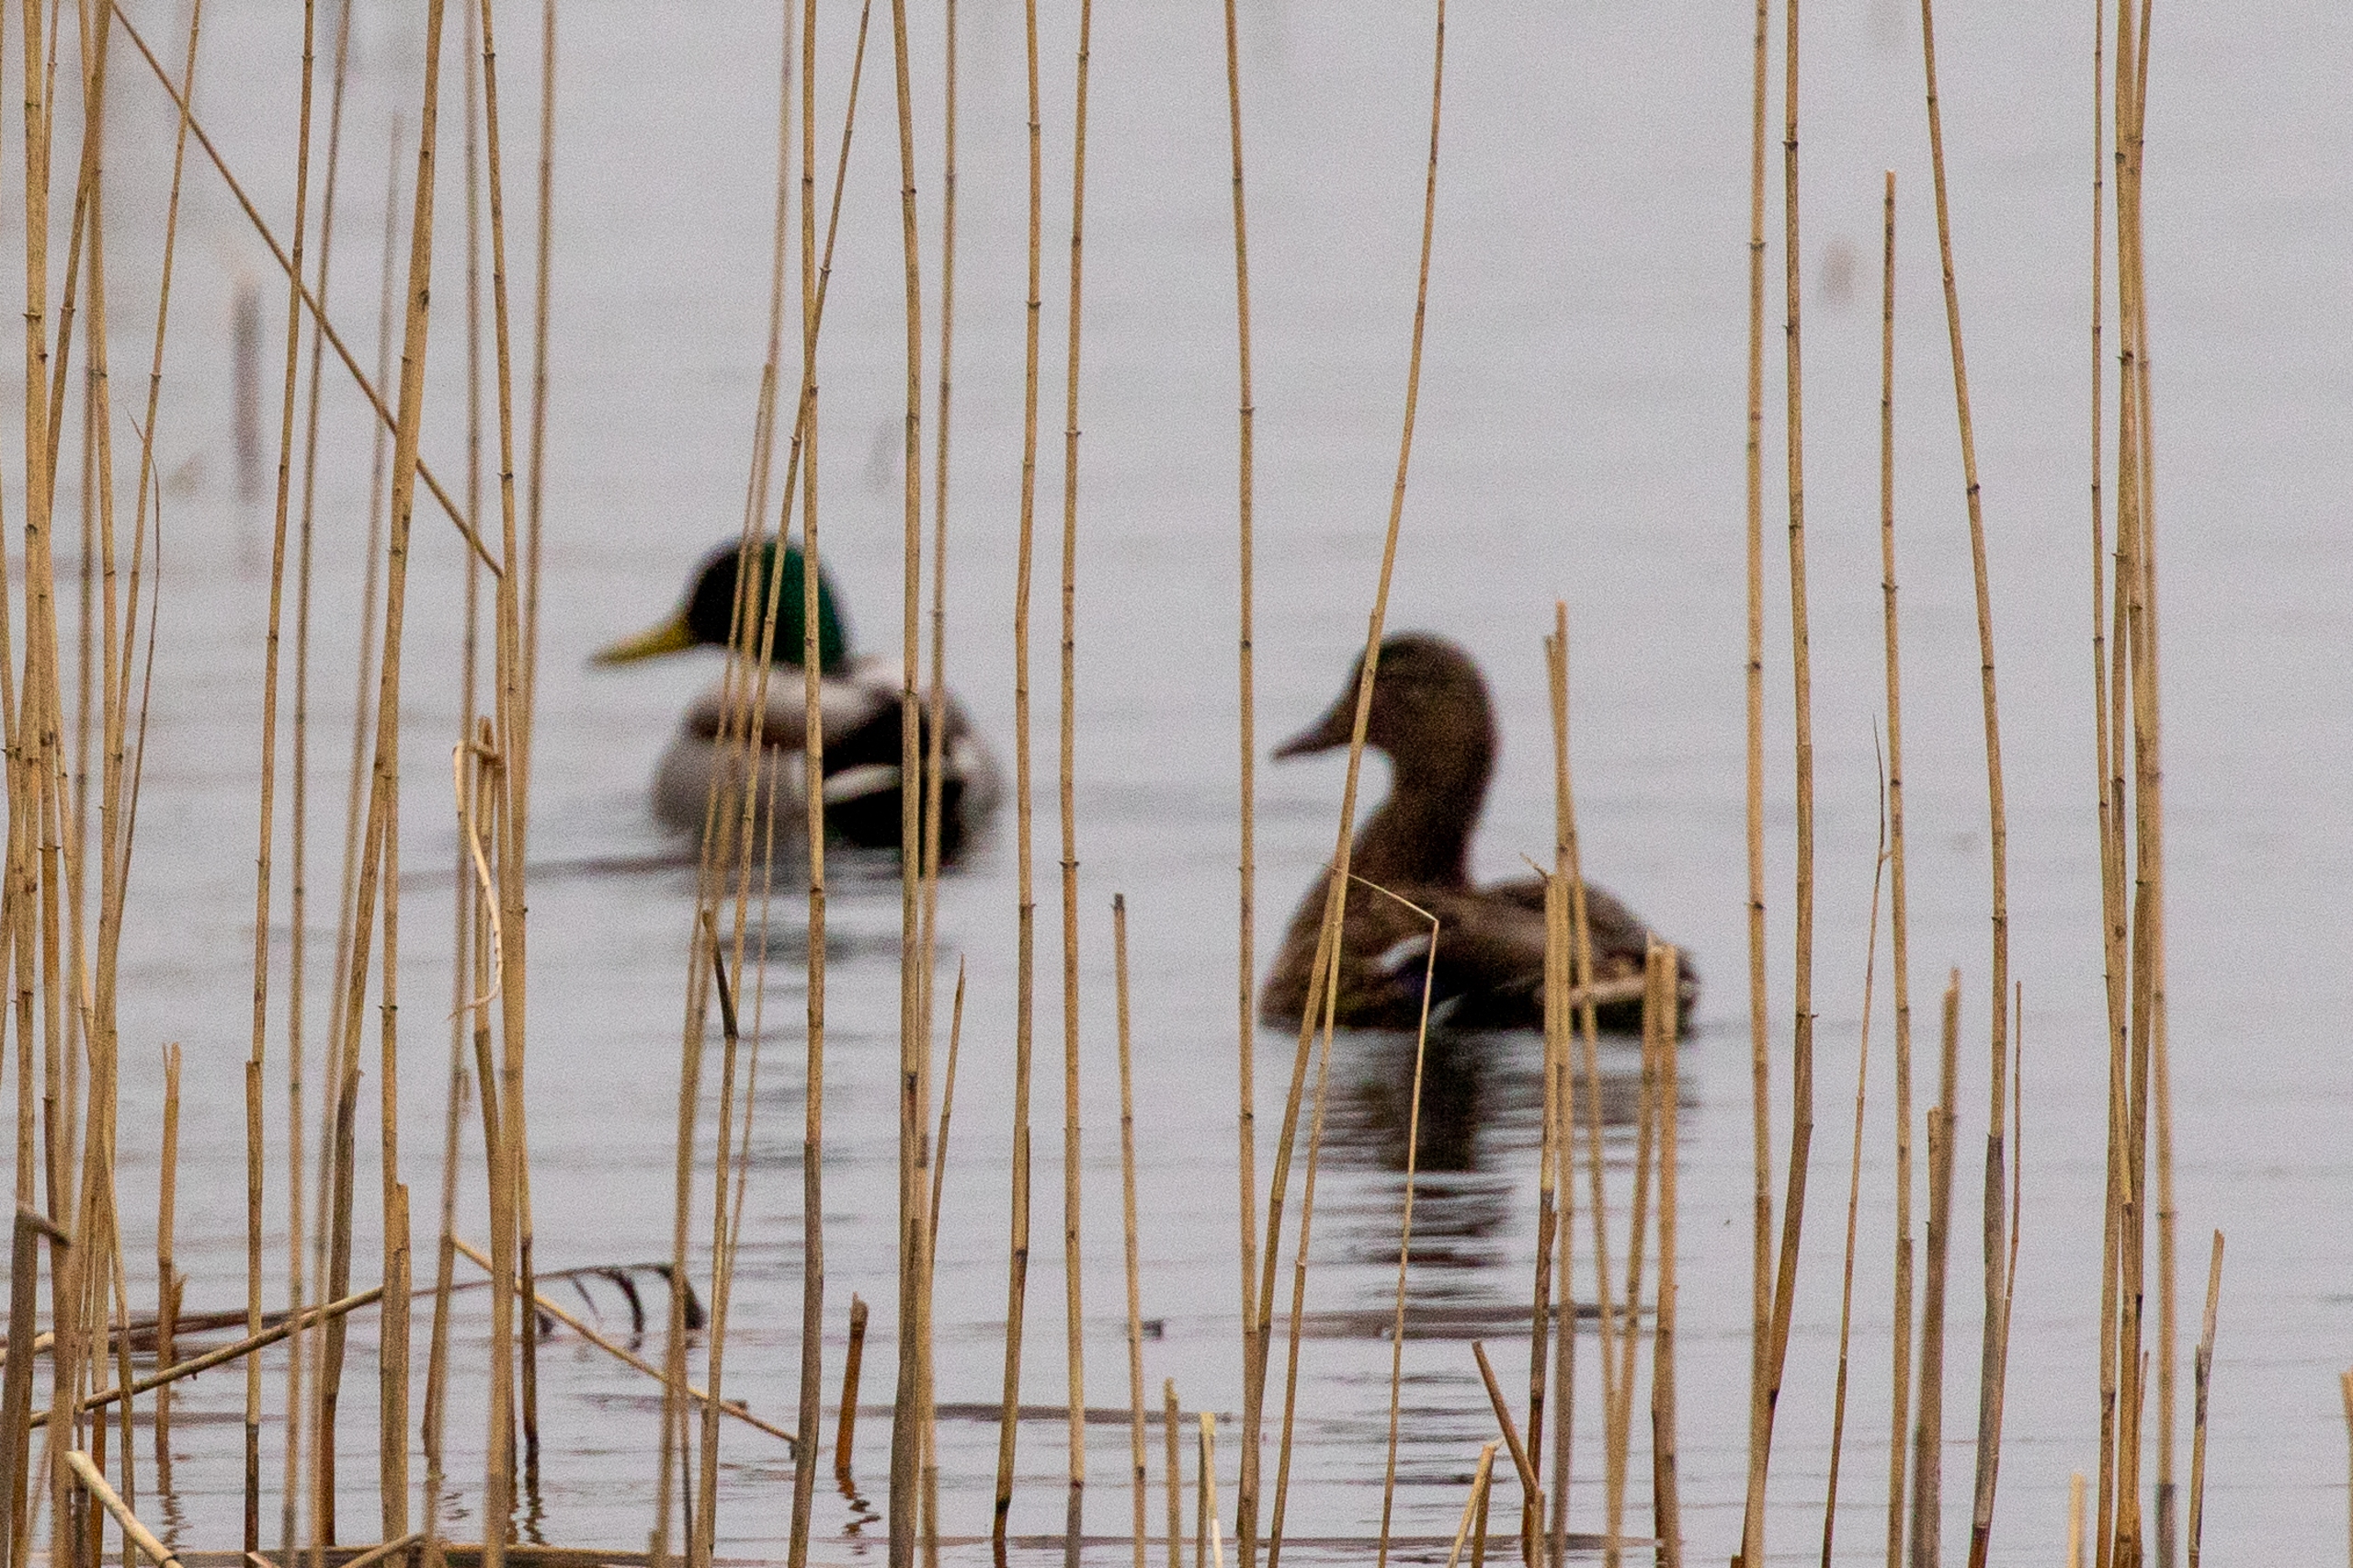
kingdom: Animalia
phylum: Chordata
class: Aves
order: Anseriformes
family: Anatidae
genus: Anas
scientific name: Anas platyrhynchos
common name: Gråand
